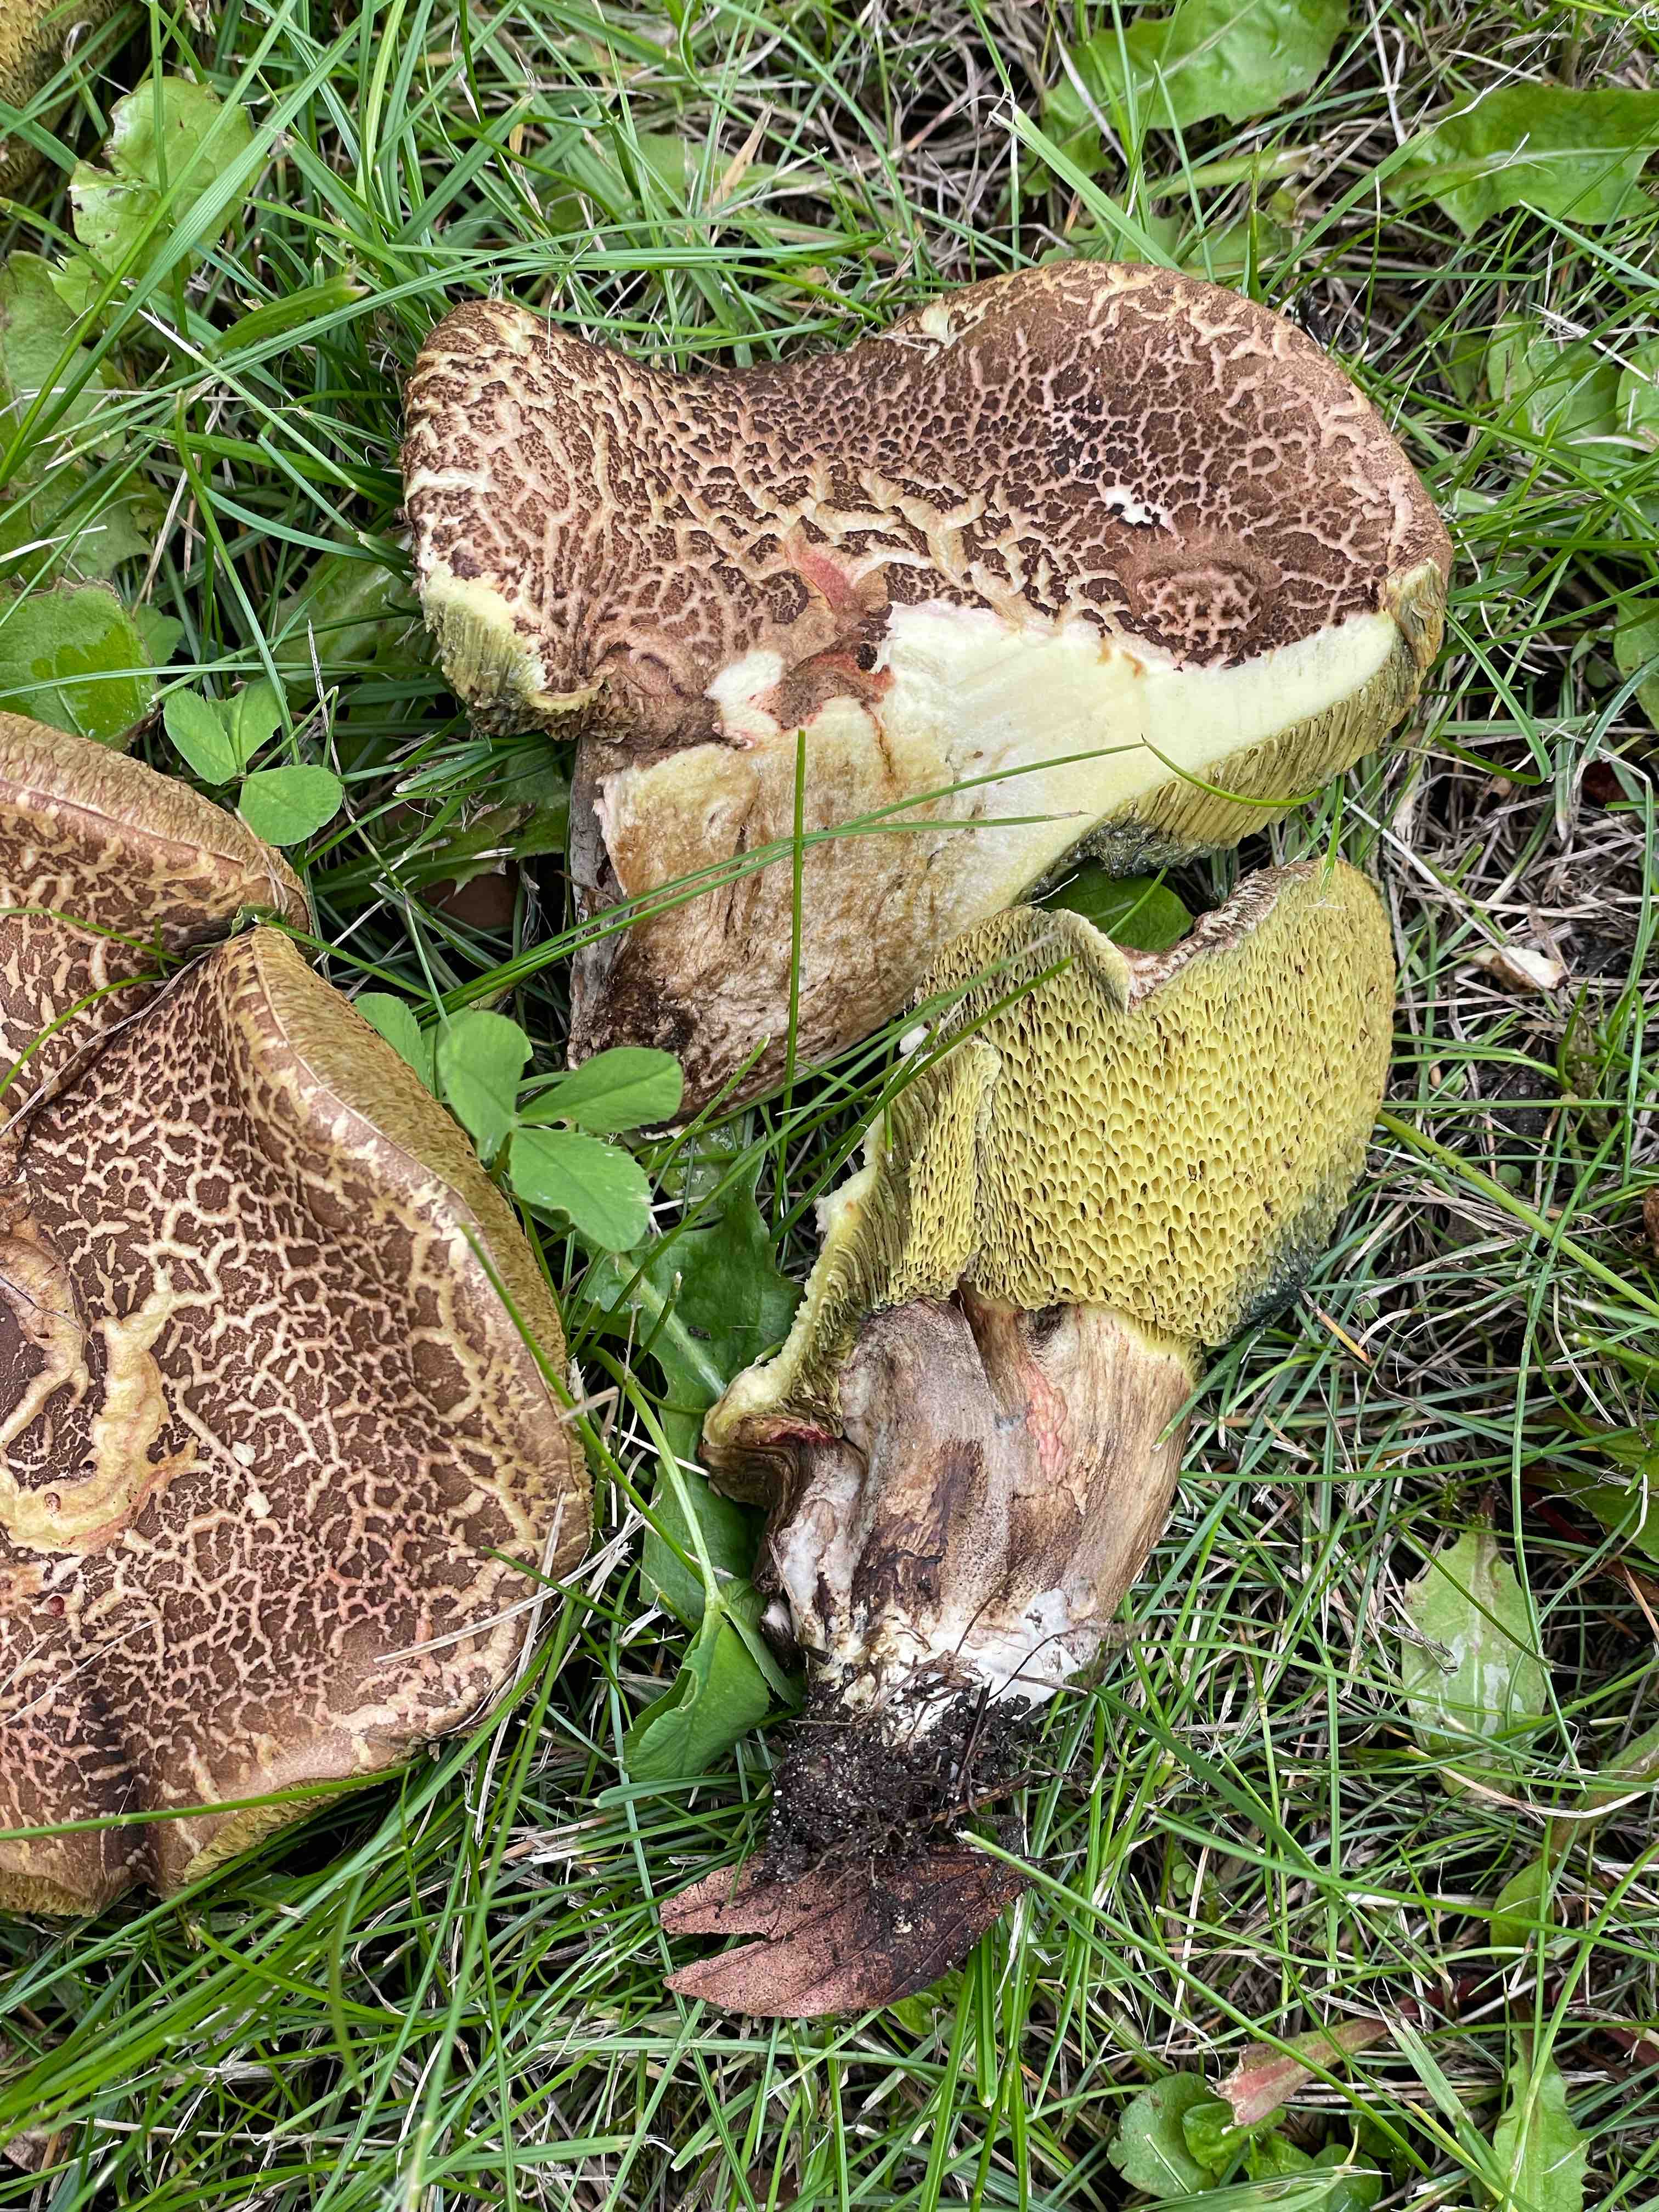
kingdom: Fungi
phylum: Basidiomycota
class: Agaricomycetes
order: Boletales
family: Boletaceae
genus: Xerocomellus
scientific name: Xerocomellus
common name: dværgrørhat
